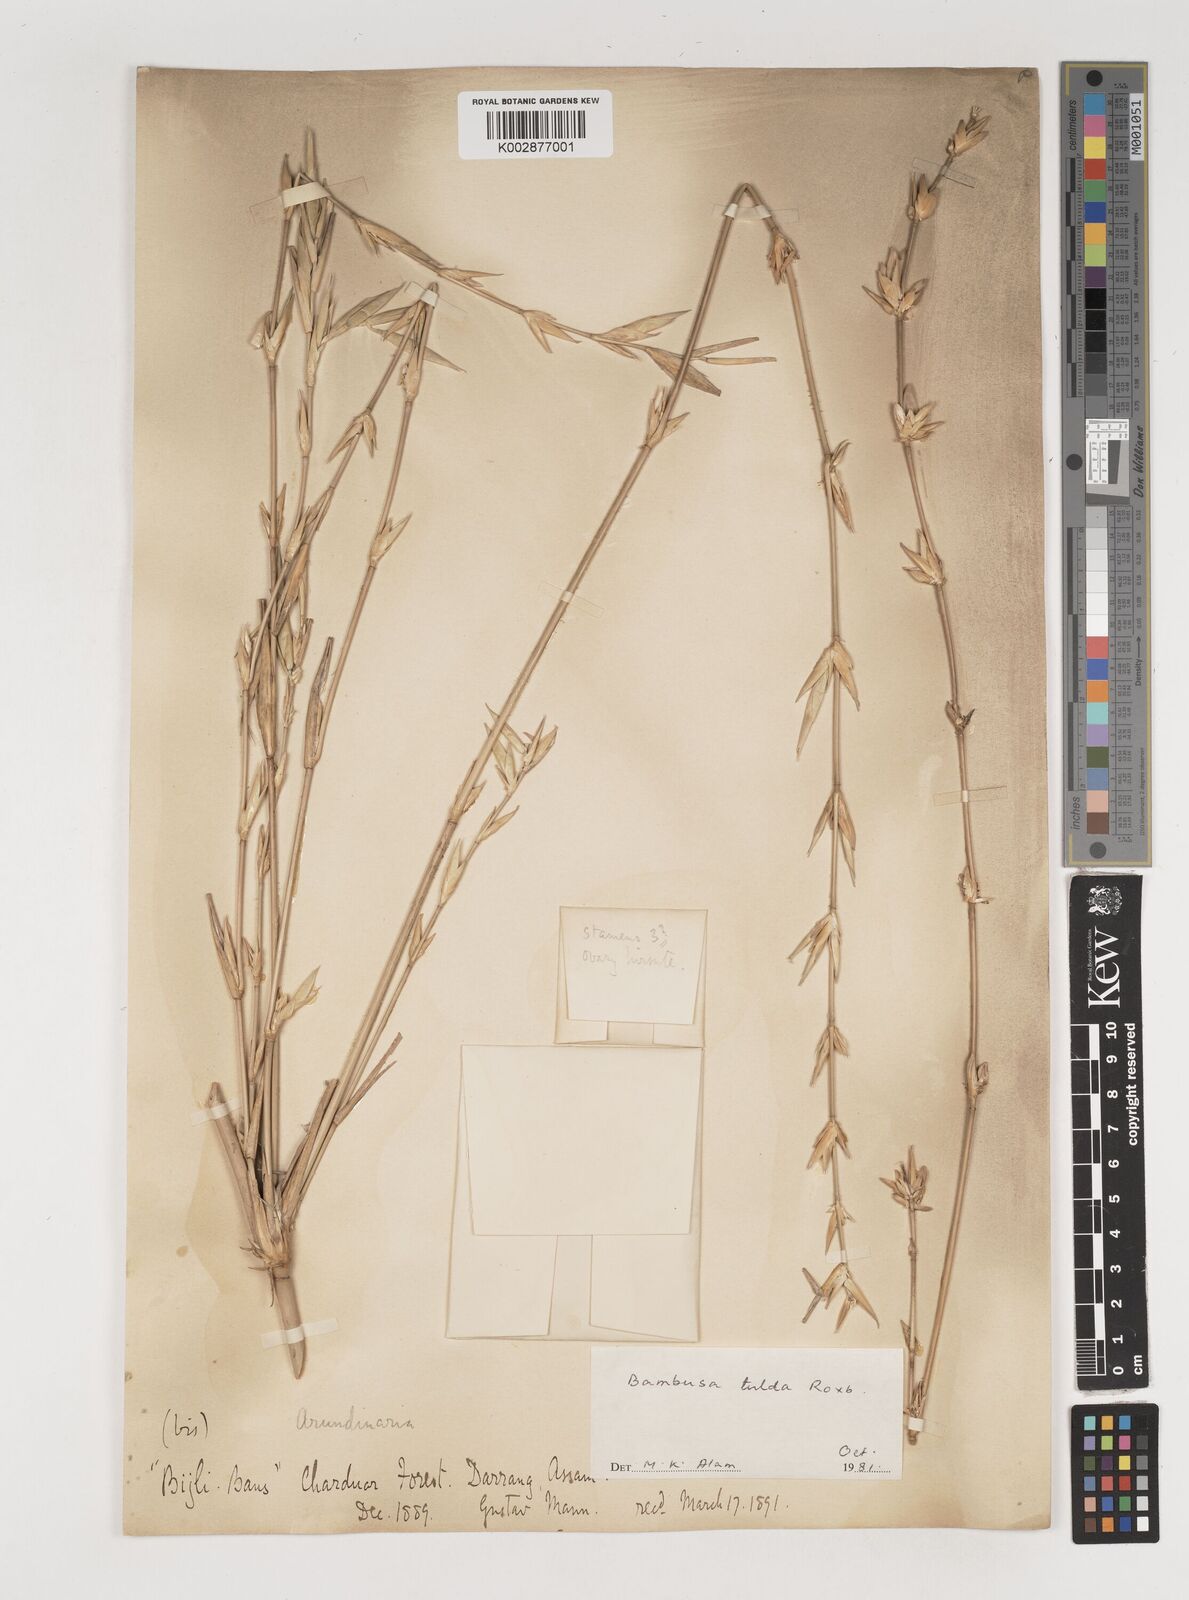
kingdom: Plantae
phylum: Tracheophyta
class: Liliopsida
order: Poales
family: Poaceae
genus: Bambusa
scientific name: Bambusa tulda
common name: Bengal bamboo
